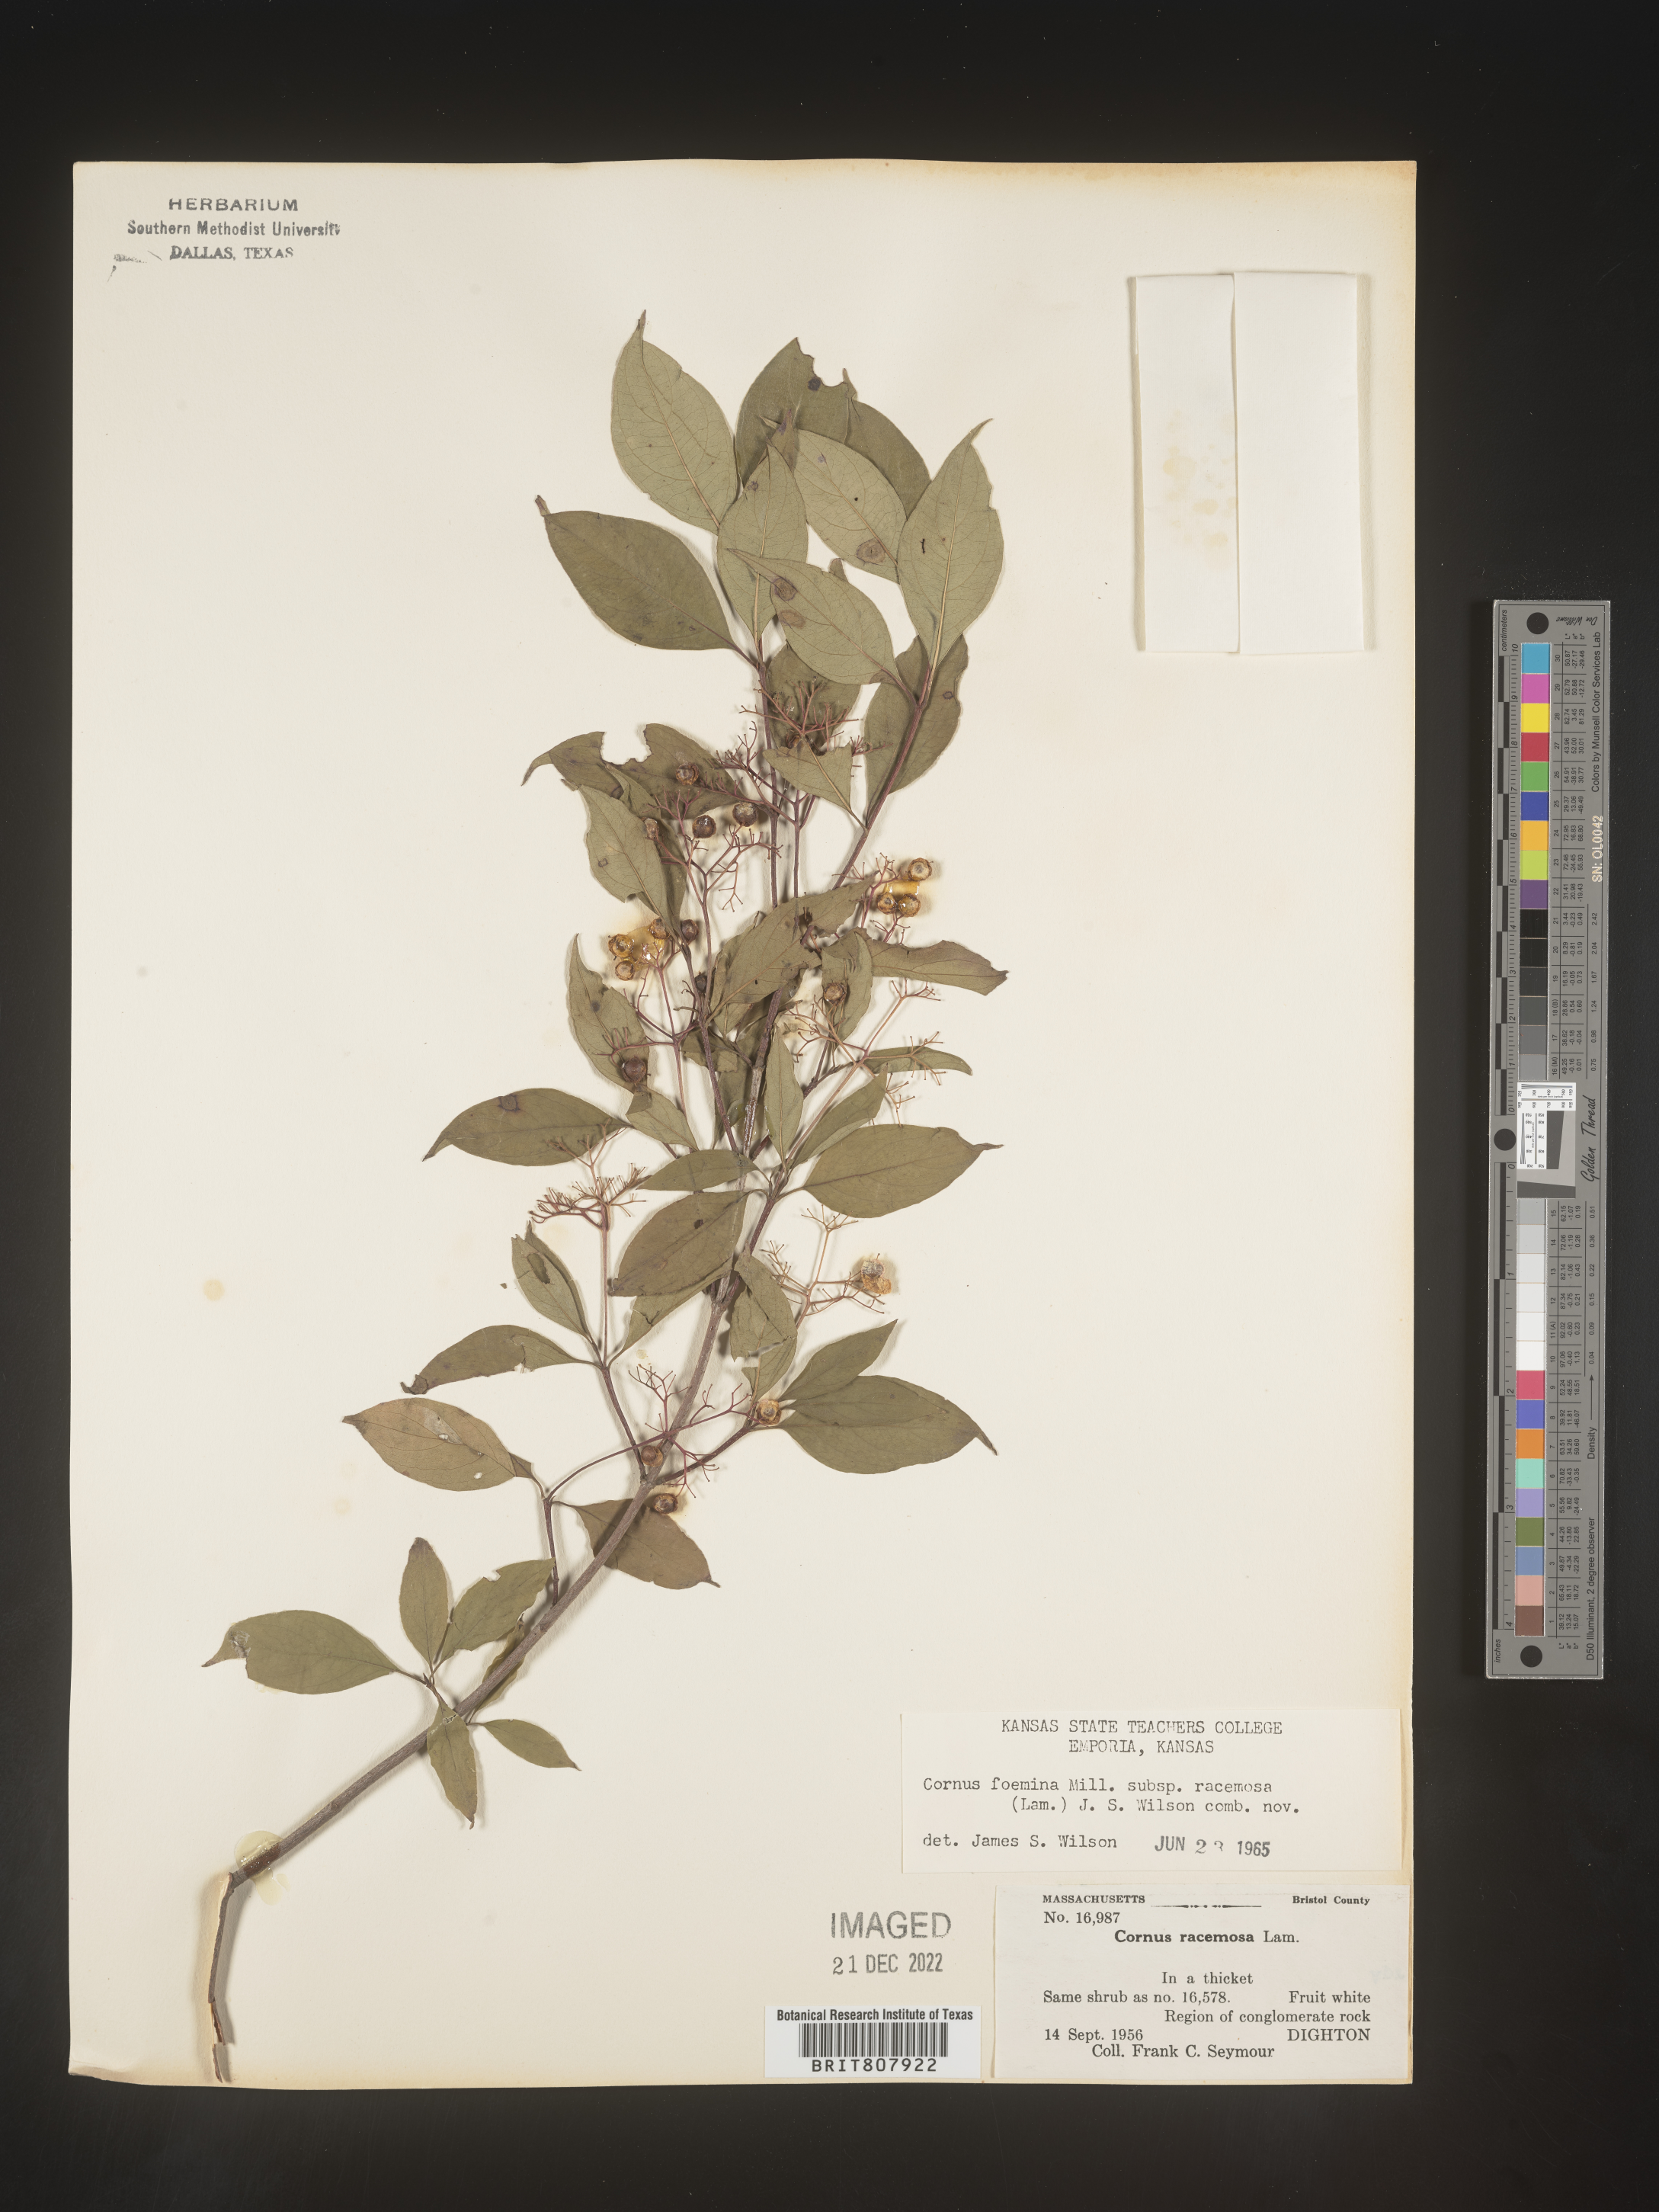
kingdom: Plantae
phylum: Tracheophyta
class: Magnoliopsida
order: Cornales
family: Cornaceae
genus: Cornus
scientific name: Cornus racemosa
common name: Panicled dogwood
